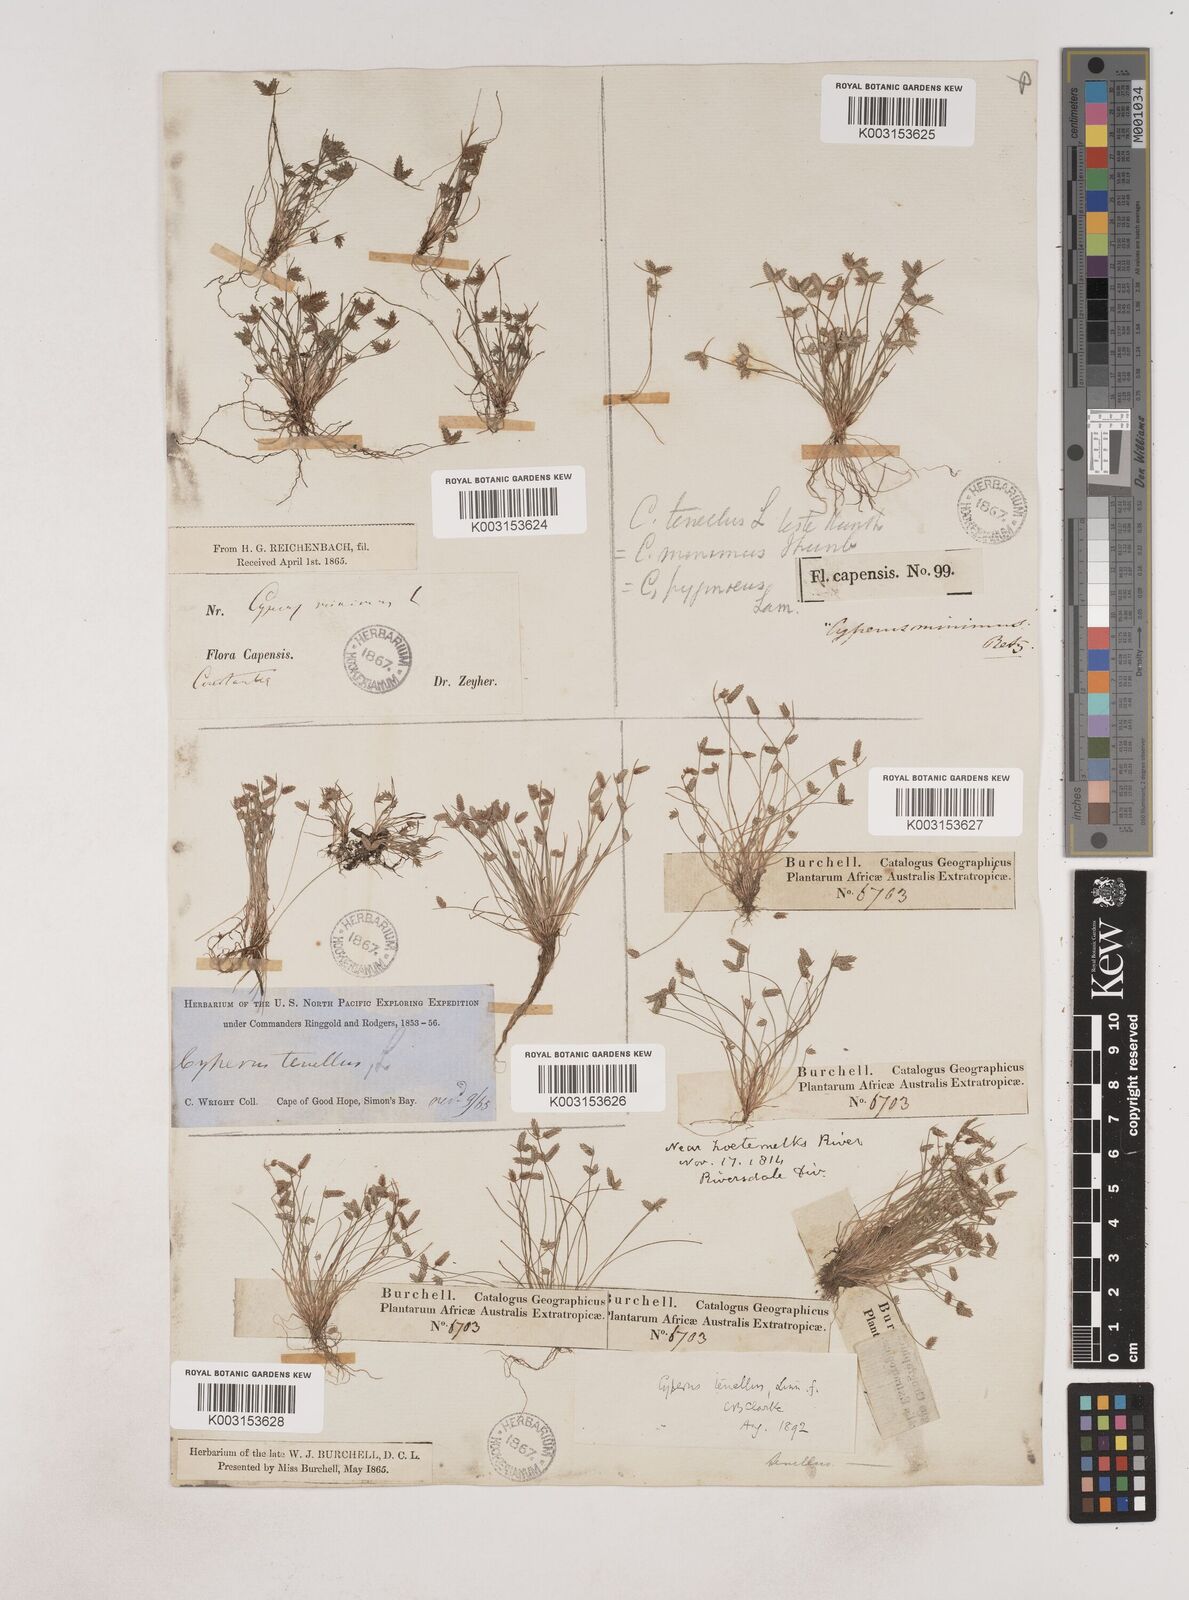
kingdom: Plantae
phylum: Tracheophyta
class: Liliopsida
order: Poales
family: Cyperaceae
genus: Bulbostylis
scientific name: Bulbostylis capillaris
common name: Densetuft hairsedge
